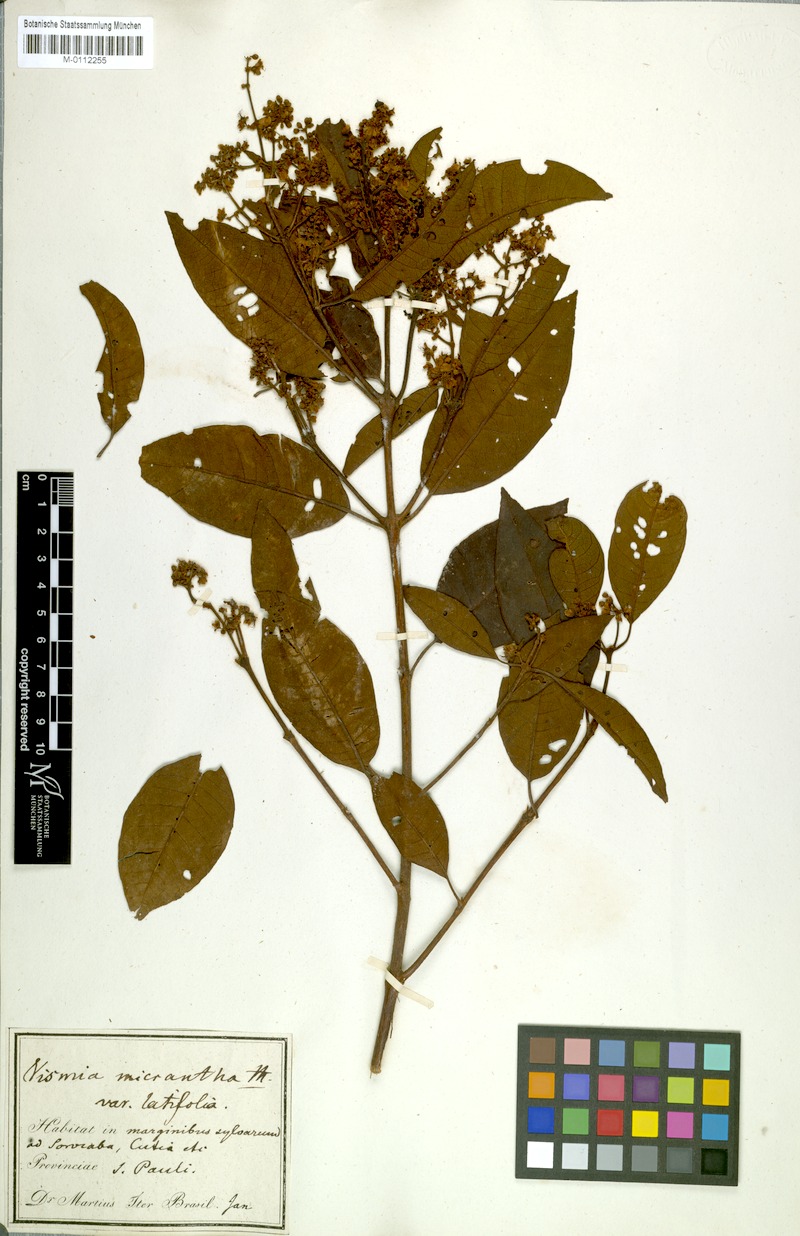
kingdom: Plantae
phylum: Tracheophyta
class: Magnoliopsida
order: Malpighiales
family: Hypericaceae
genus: Vismia
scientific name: Vismia micrantha
